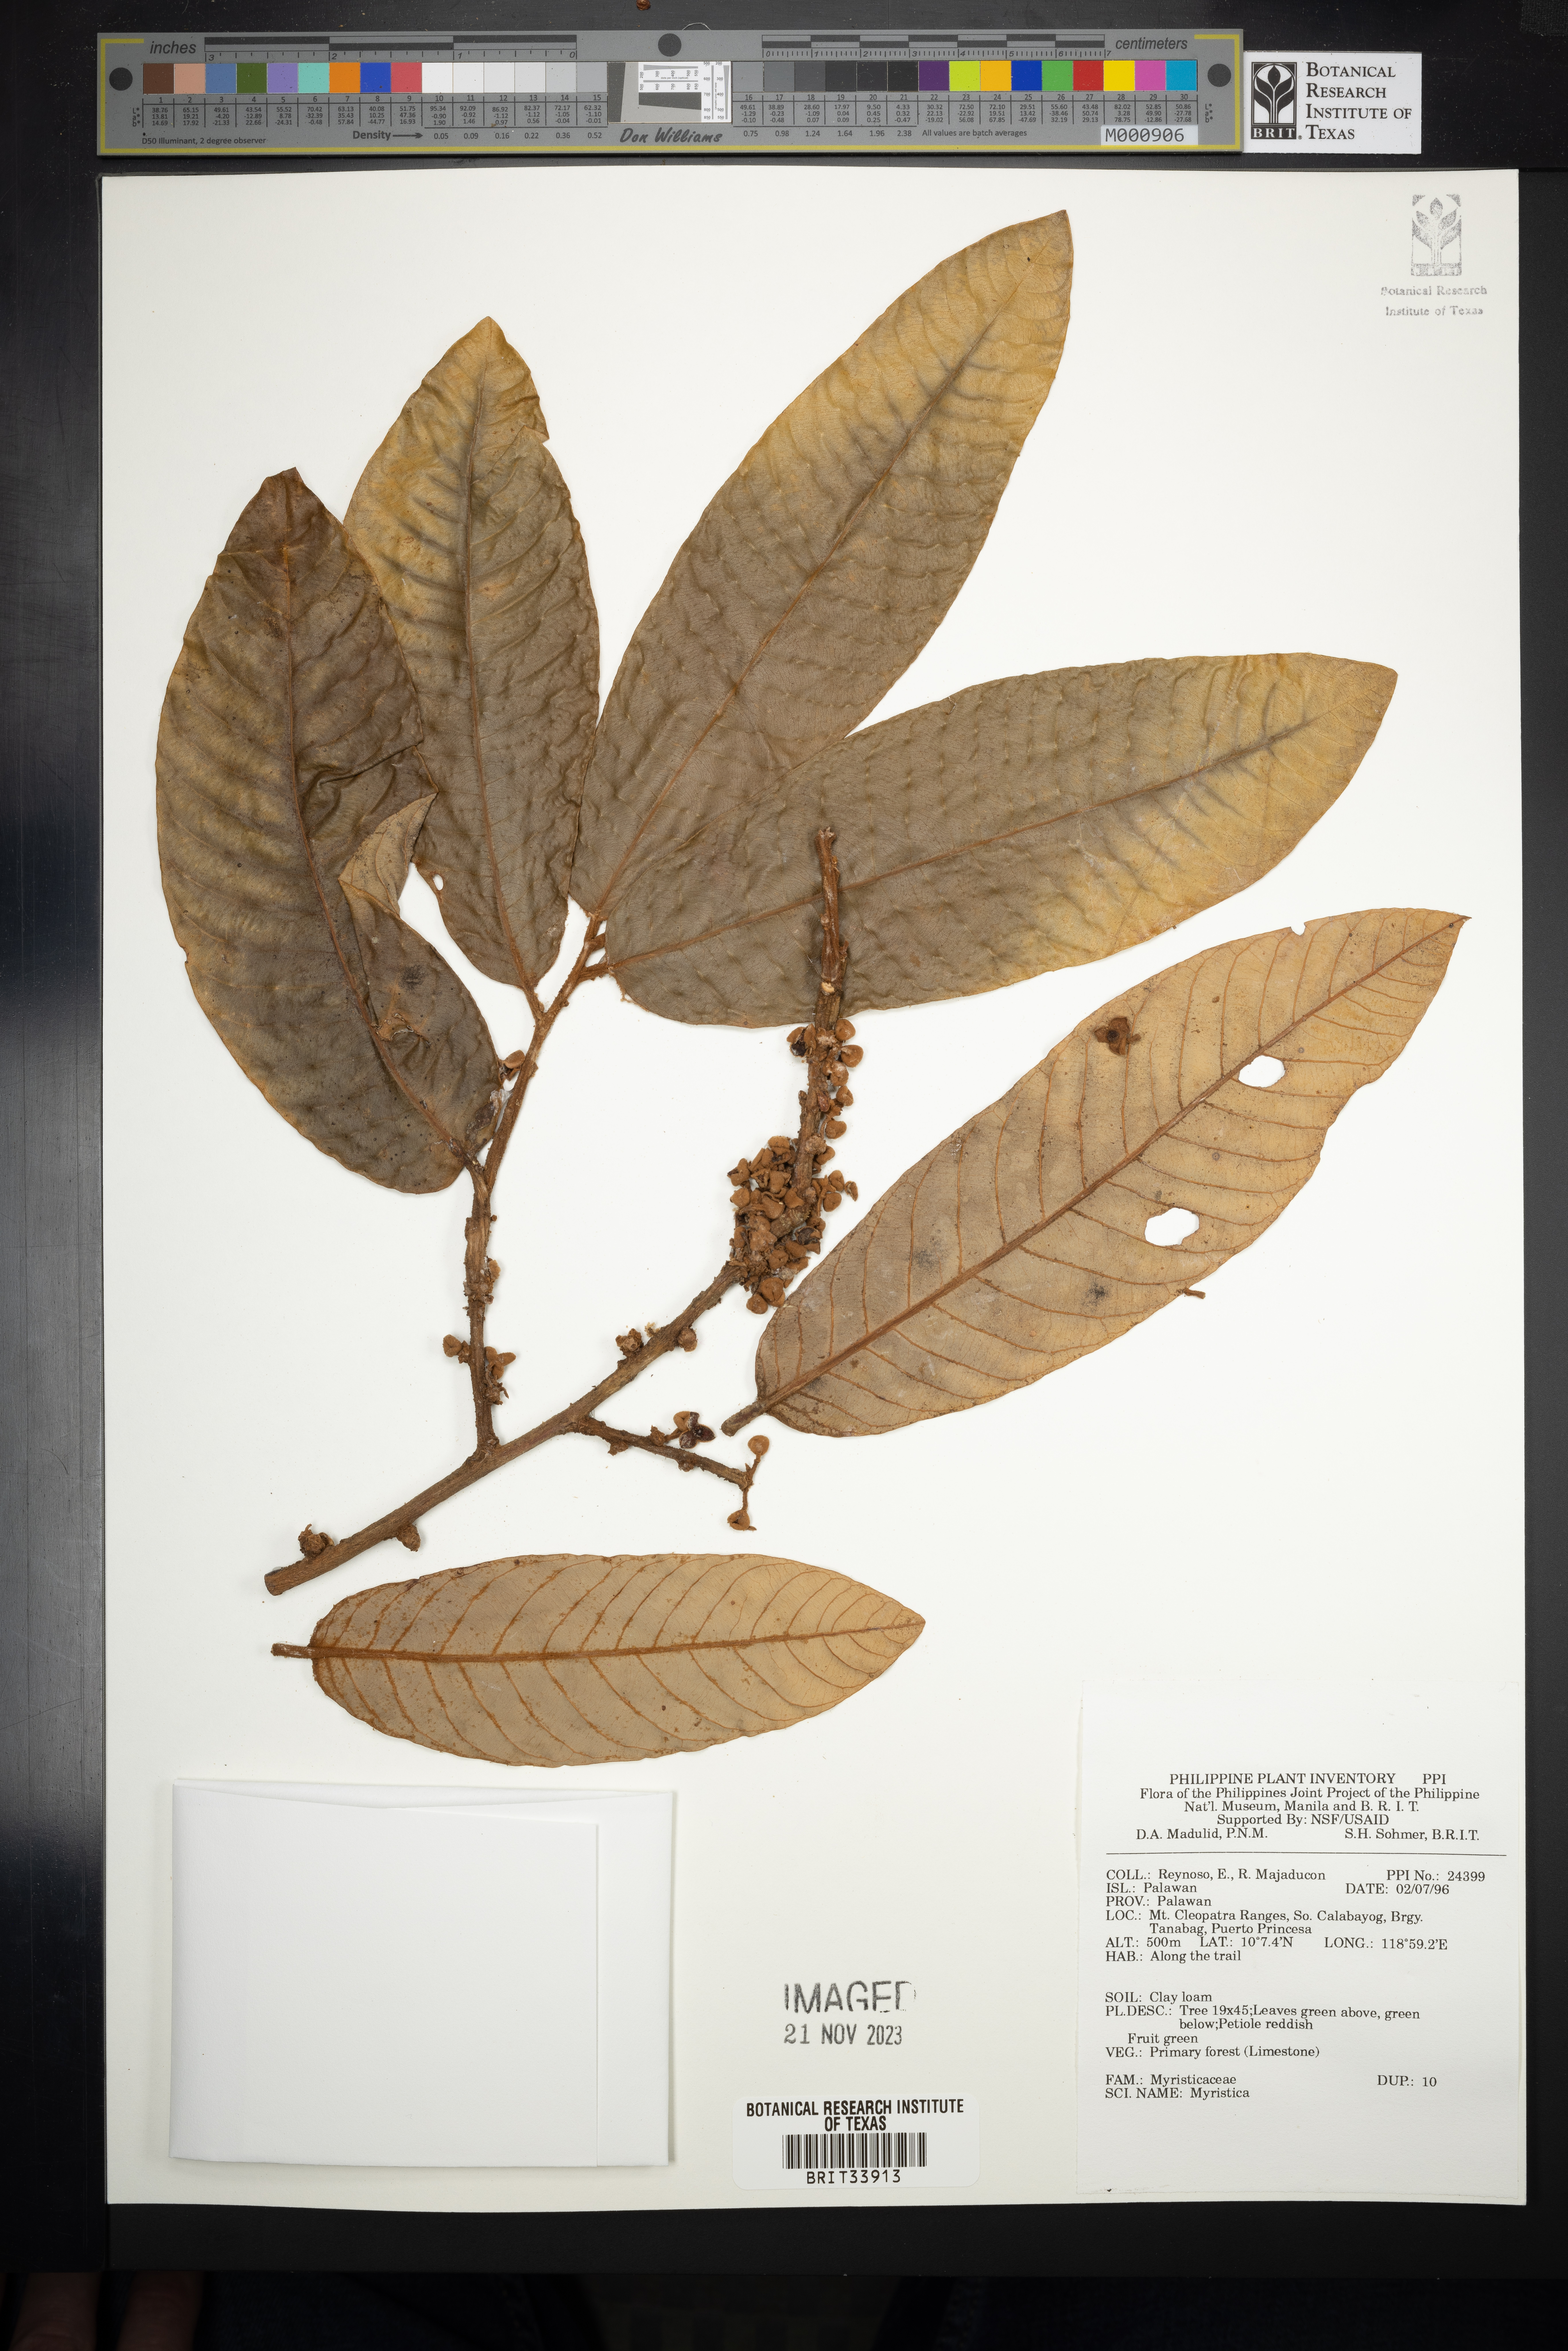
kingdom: Plantae
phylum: Tracheophyta
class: Magnoliopsida
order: Magnoliales
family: Myristicaceae
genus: Myristica
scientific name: Myristica
